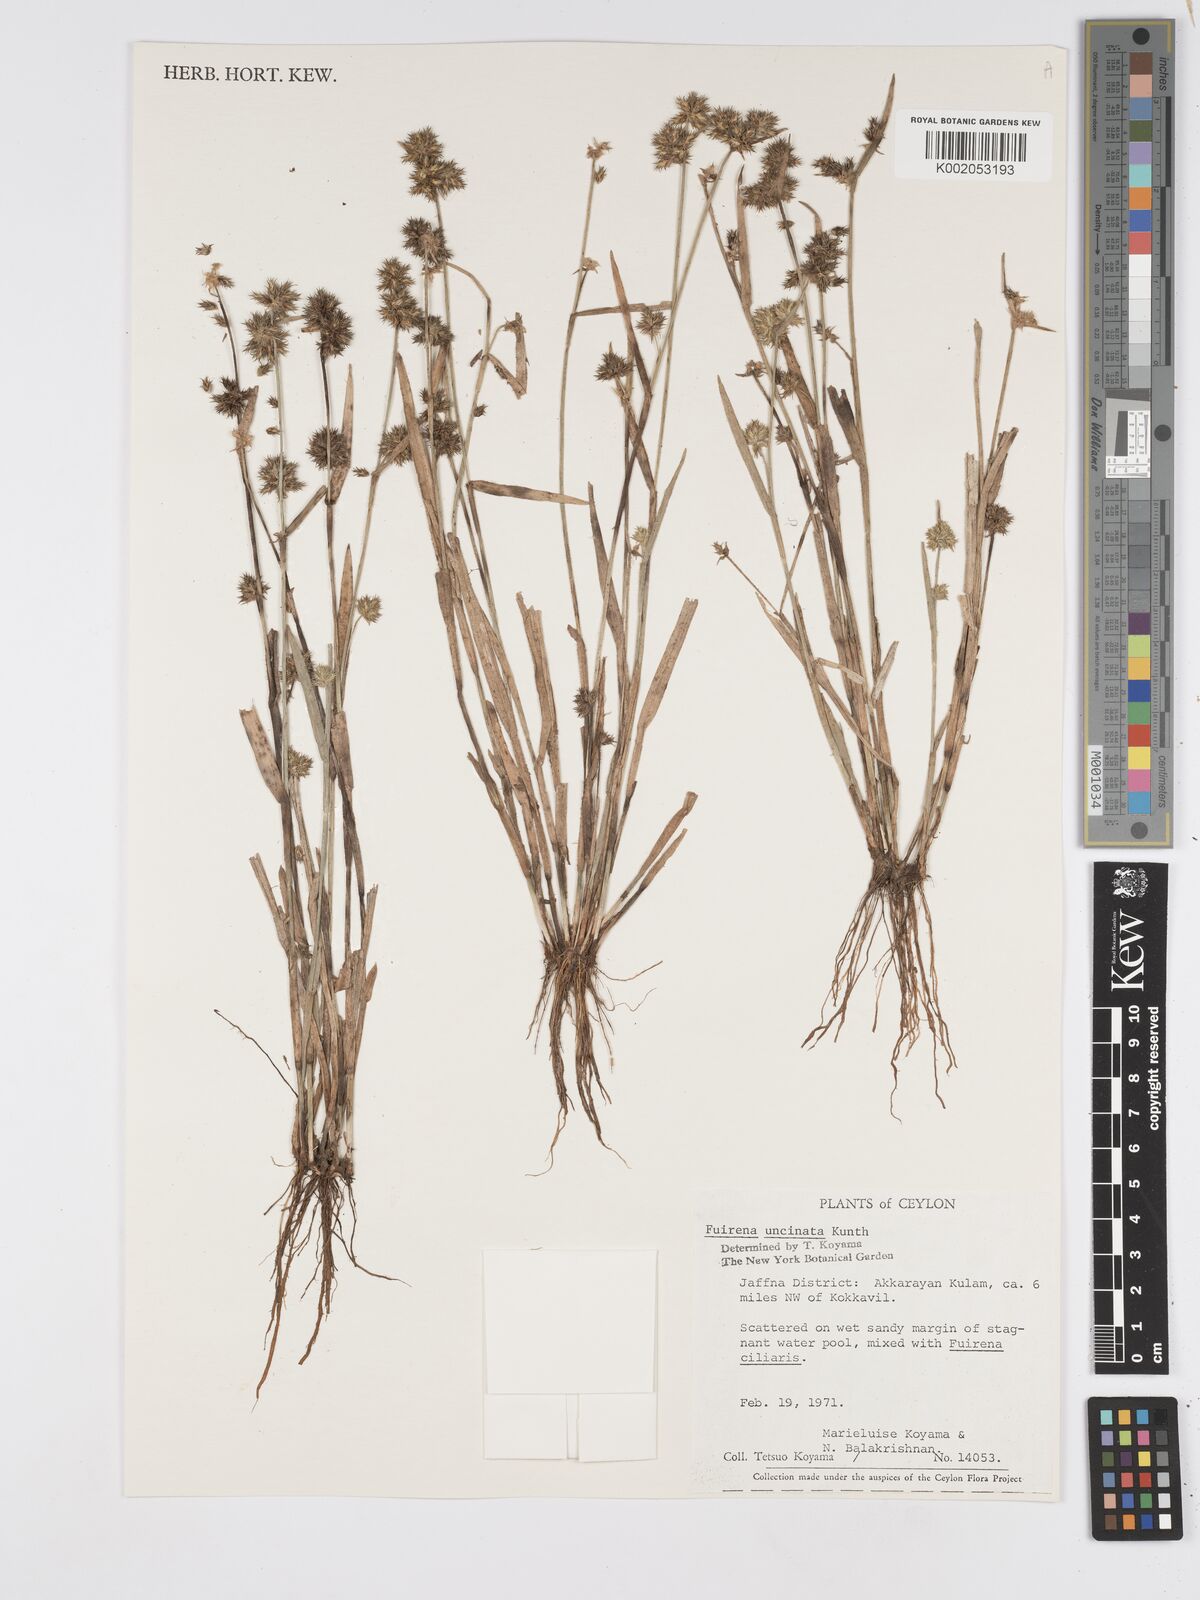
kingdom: Plantae
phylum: Tracheophyta
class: Liliopsida
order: Poales
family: Cyperaceae
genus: Fuirena
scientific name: Fuirena uncinata
